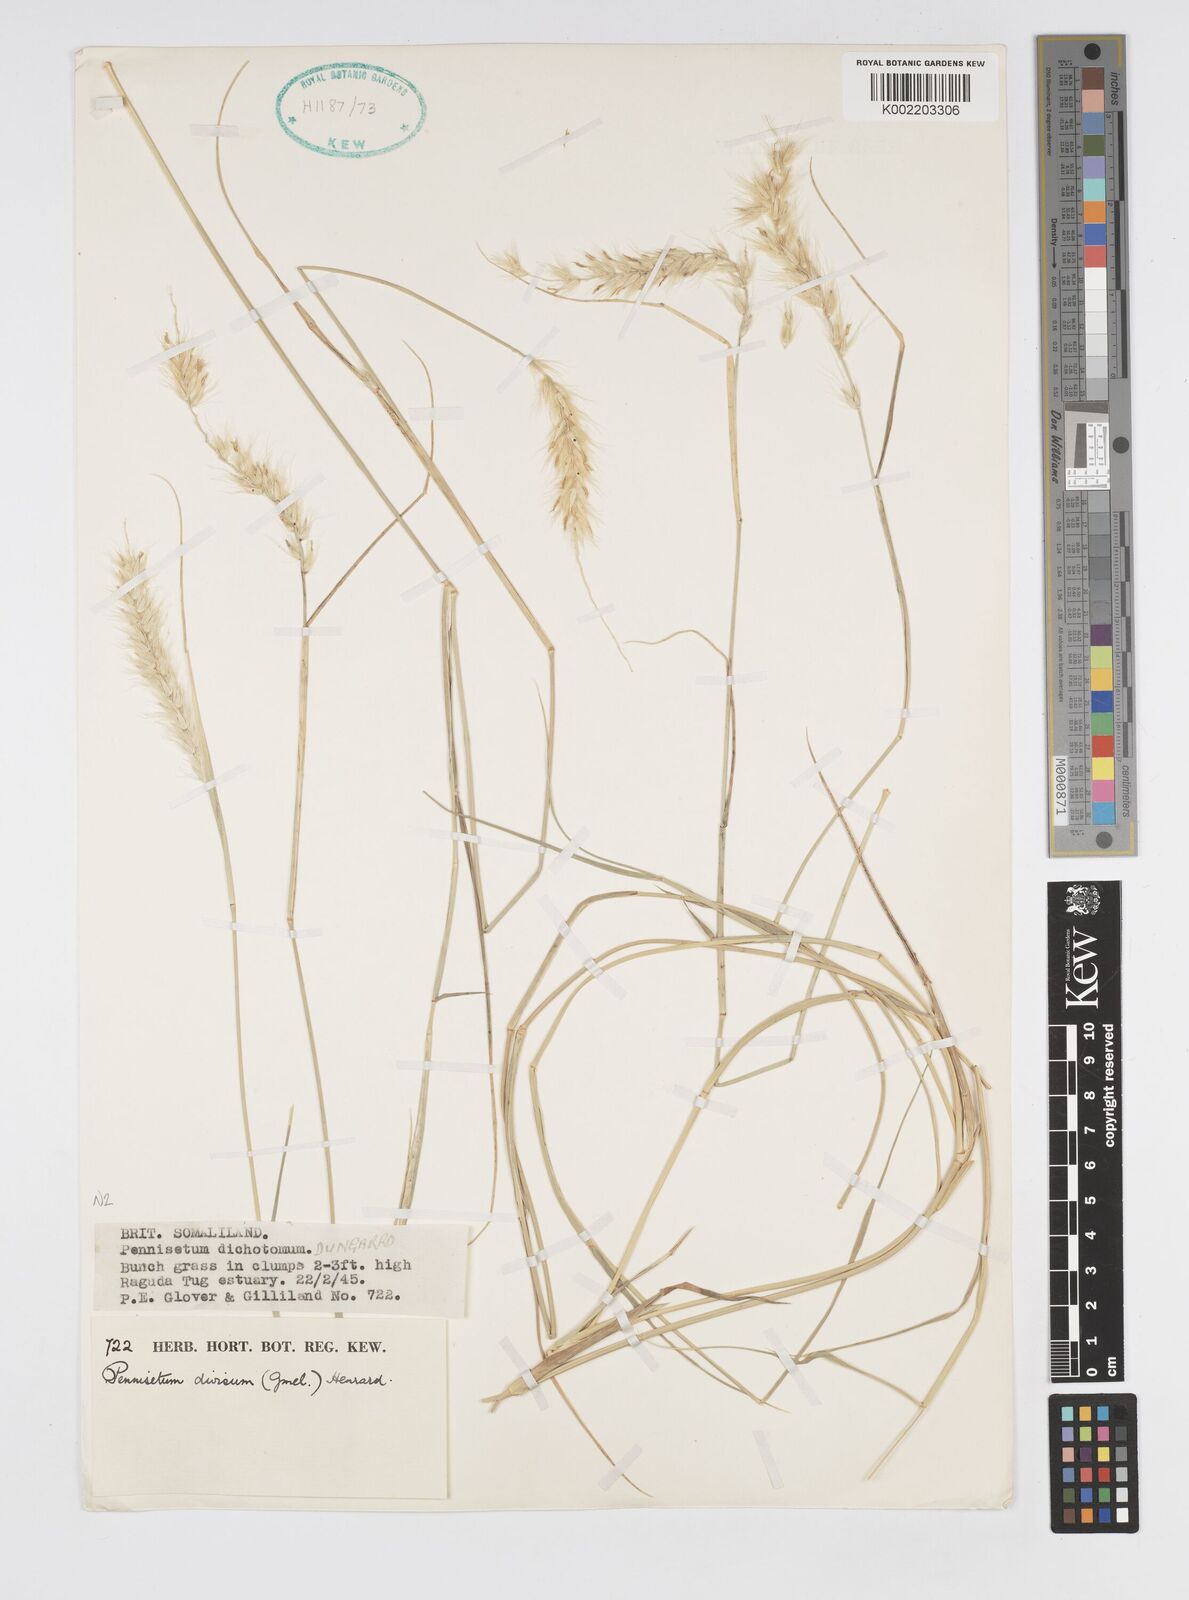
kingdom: Plantae
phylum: Tracheophyta
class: Liliopsida
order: Poales
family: Poaceae
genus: Cenchrus
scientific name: Cenchrus divisus
